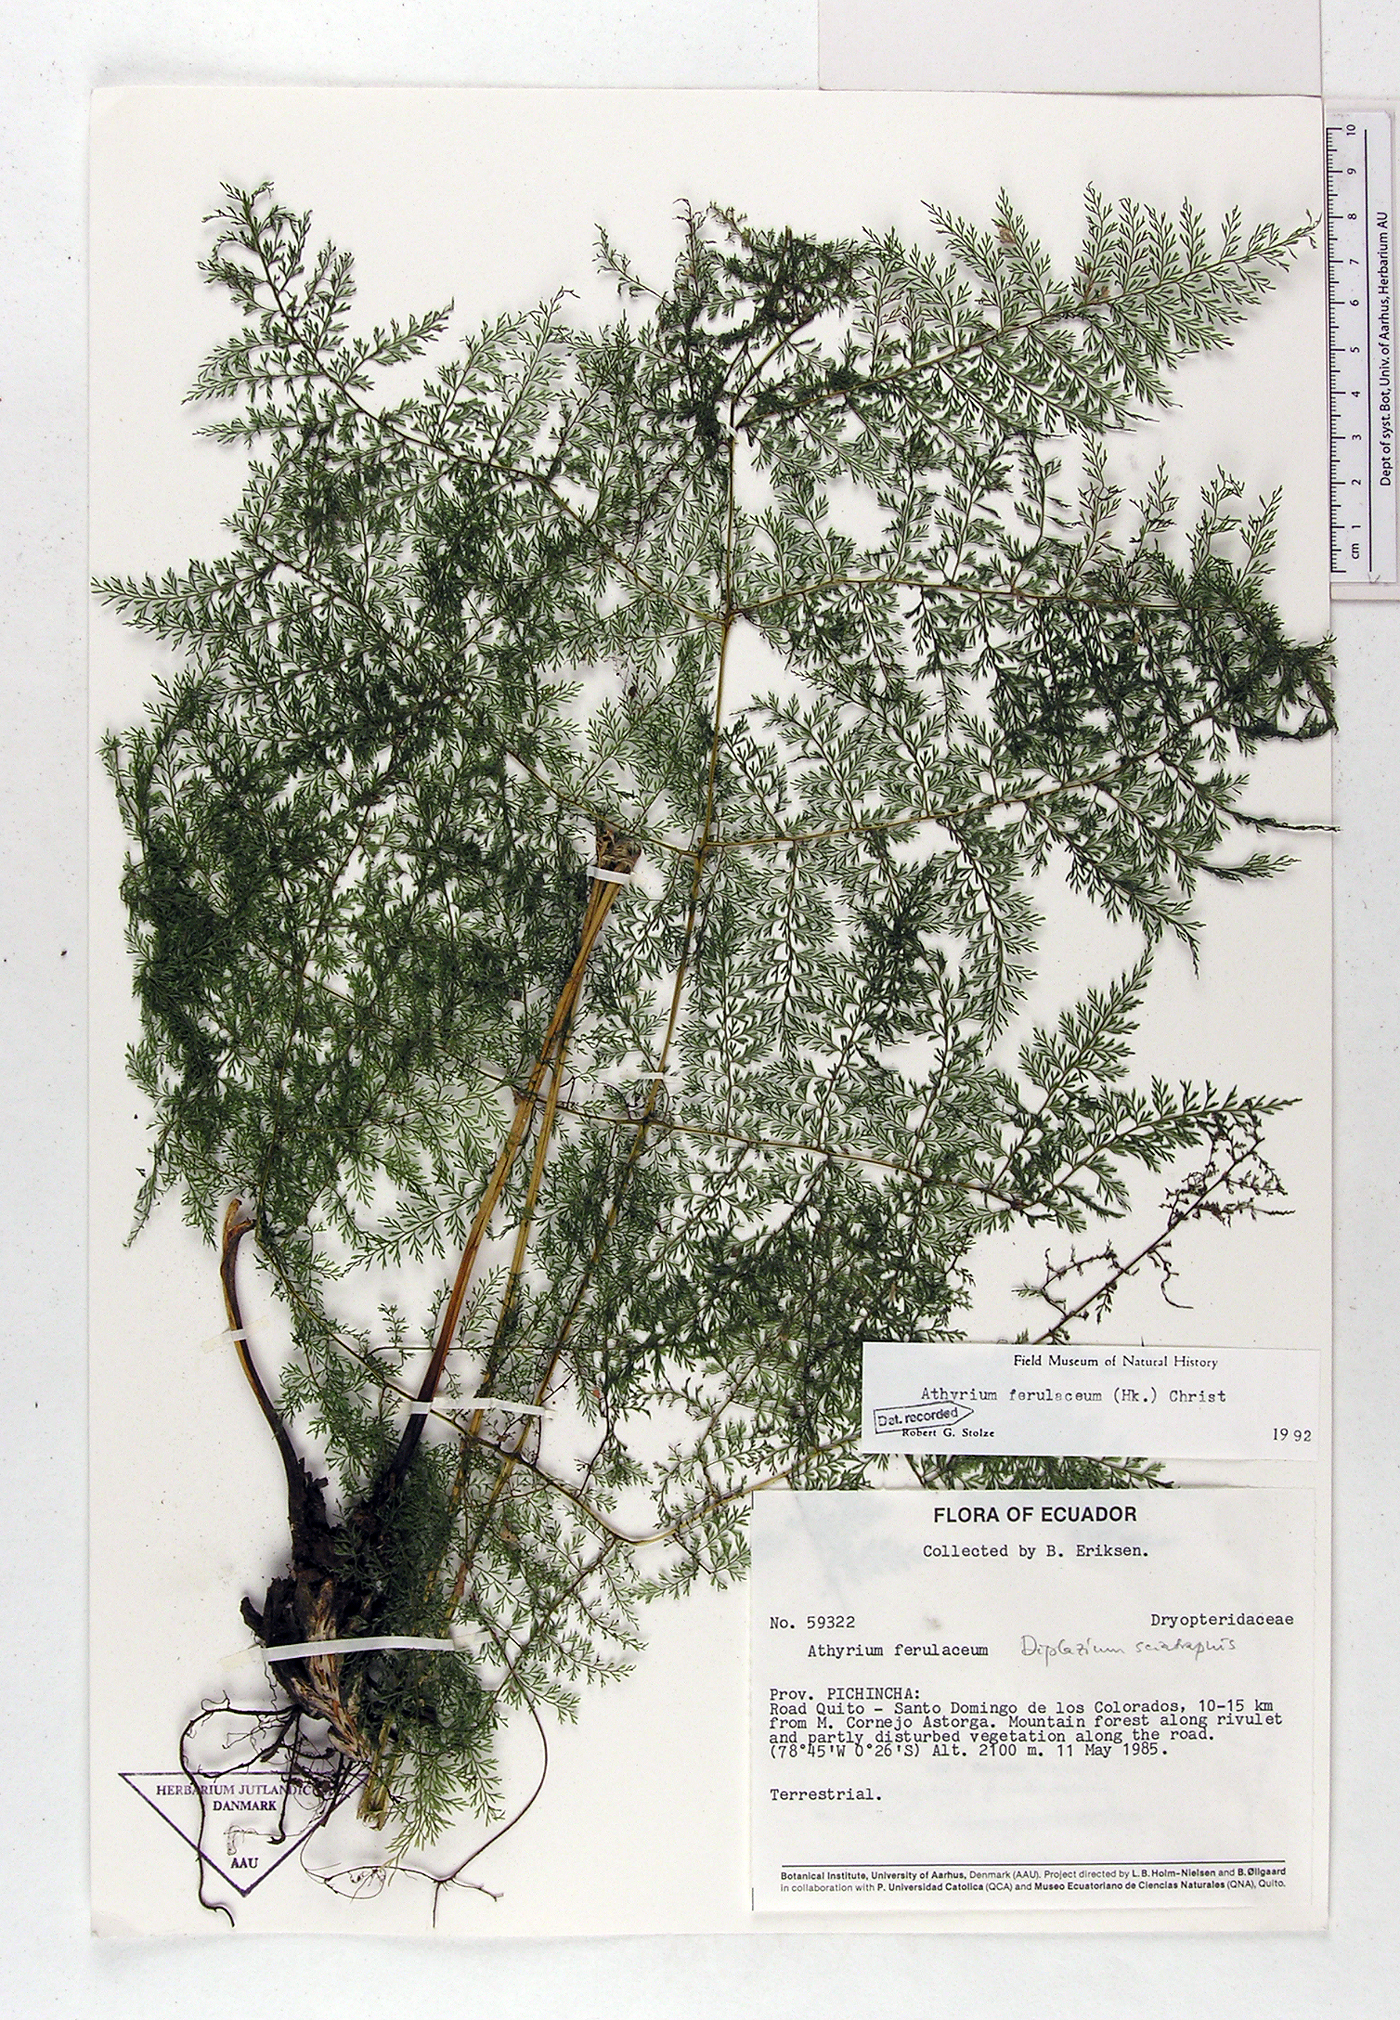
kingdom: Plantae
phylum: Tracheophyta
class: Polypodiopsida
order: Polypodiales
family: Athyriaceae
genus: Athyrium
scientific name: Athyrium ferulaceum
